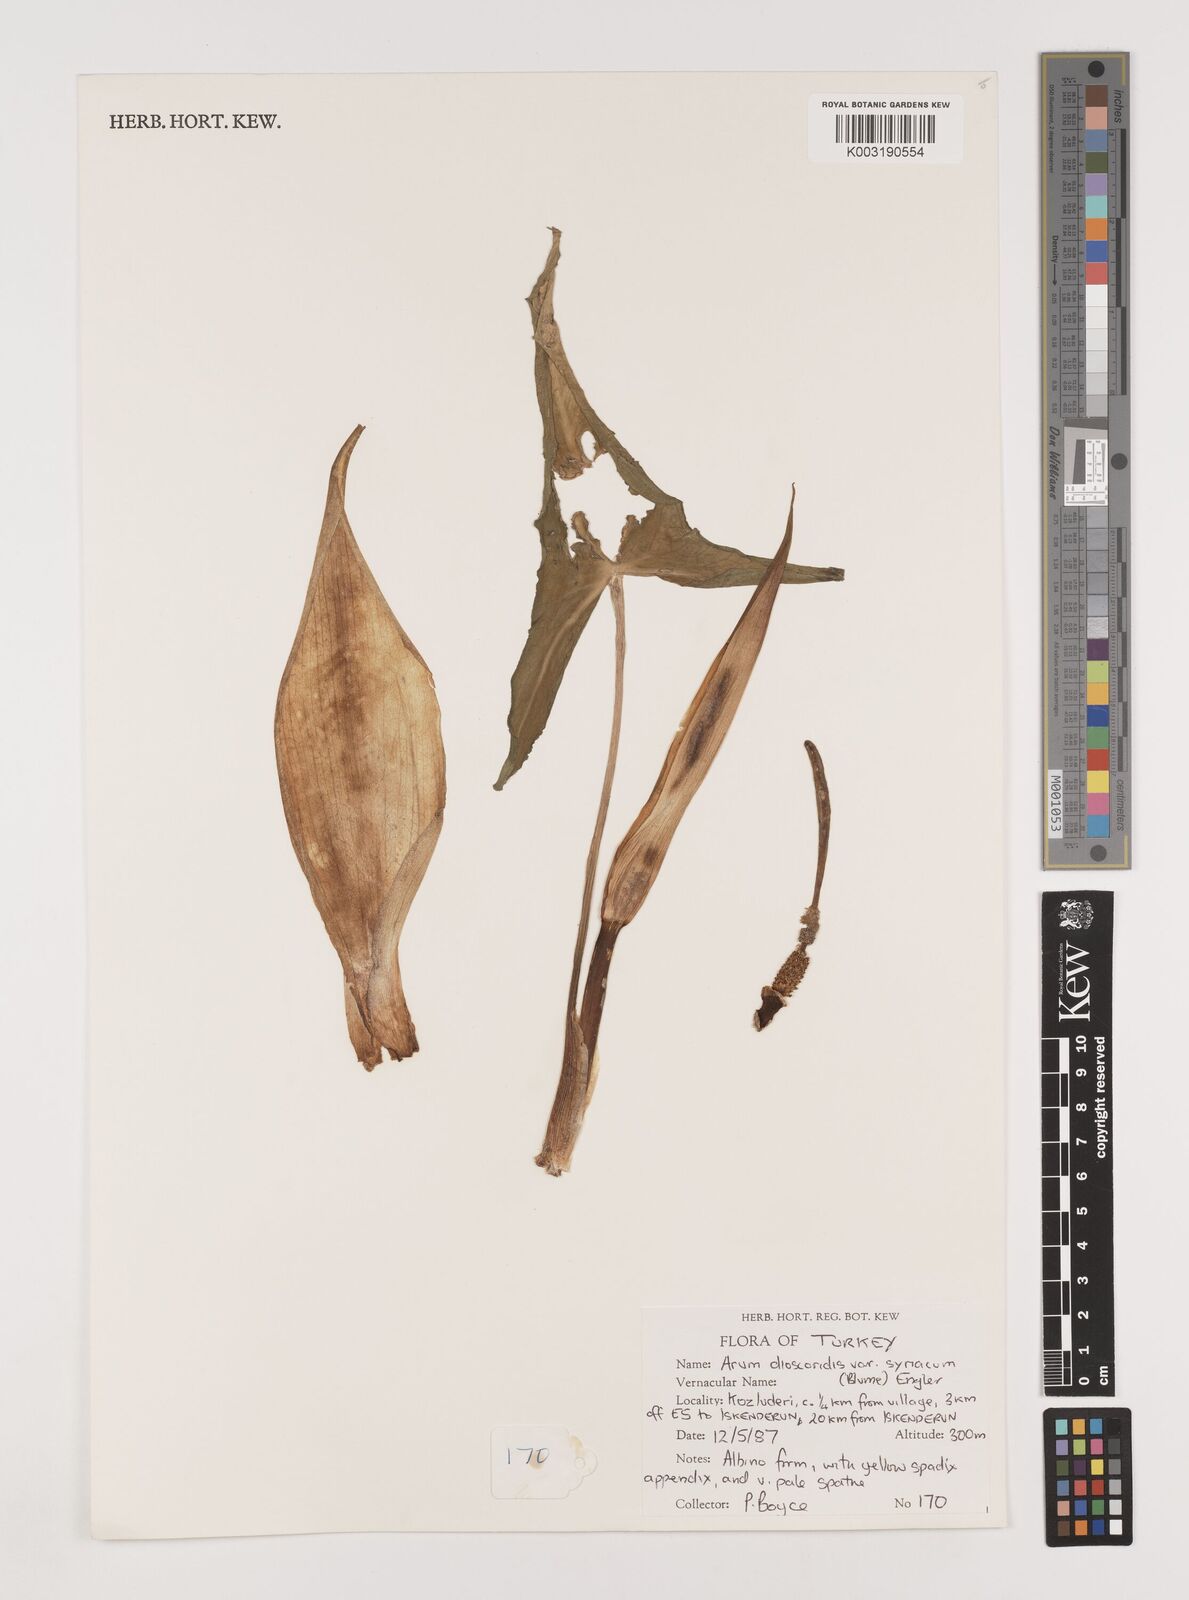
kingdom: Plantae
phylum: Tracheophyta
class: Liliopsida
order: Alismatales
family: Araceae
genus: Arum
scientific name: Arum dioscoridis
